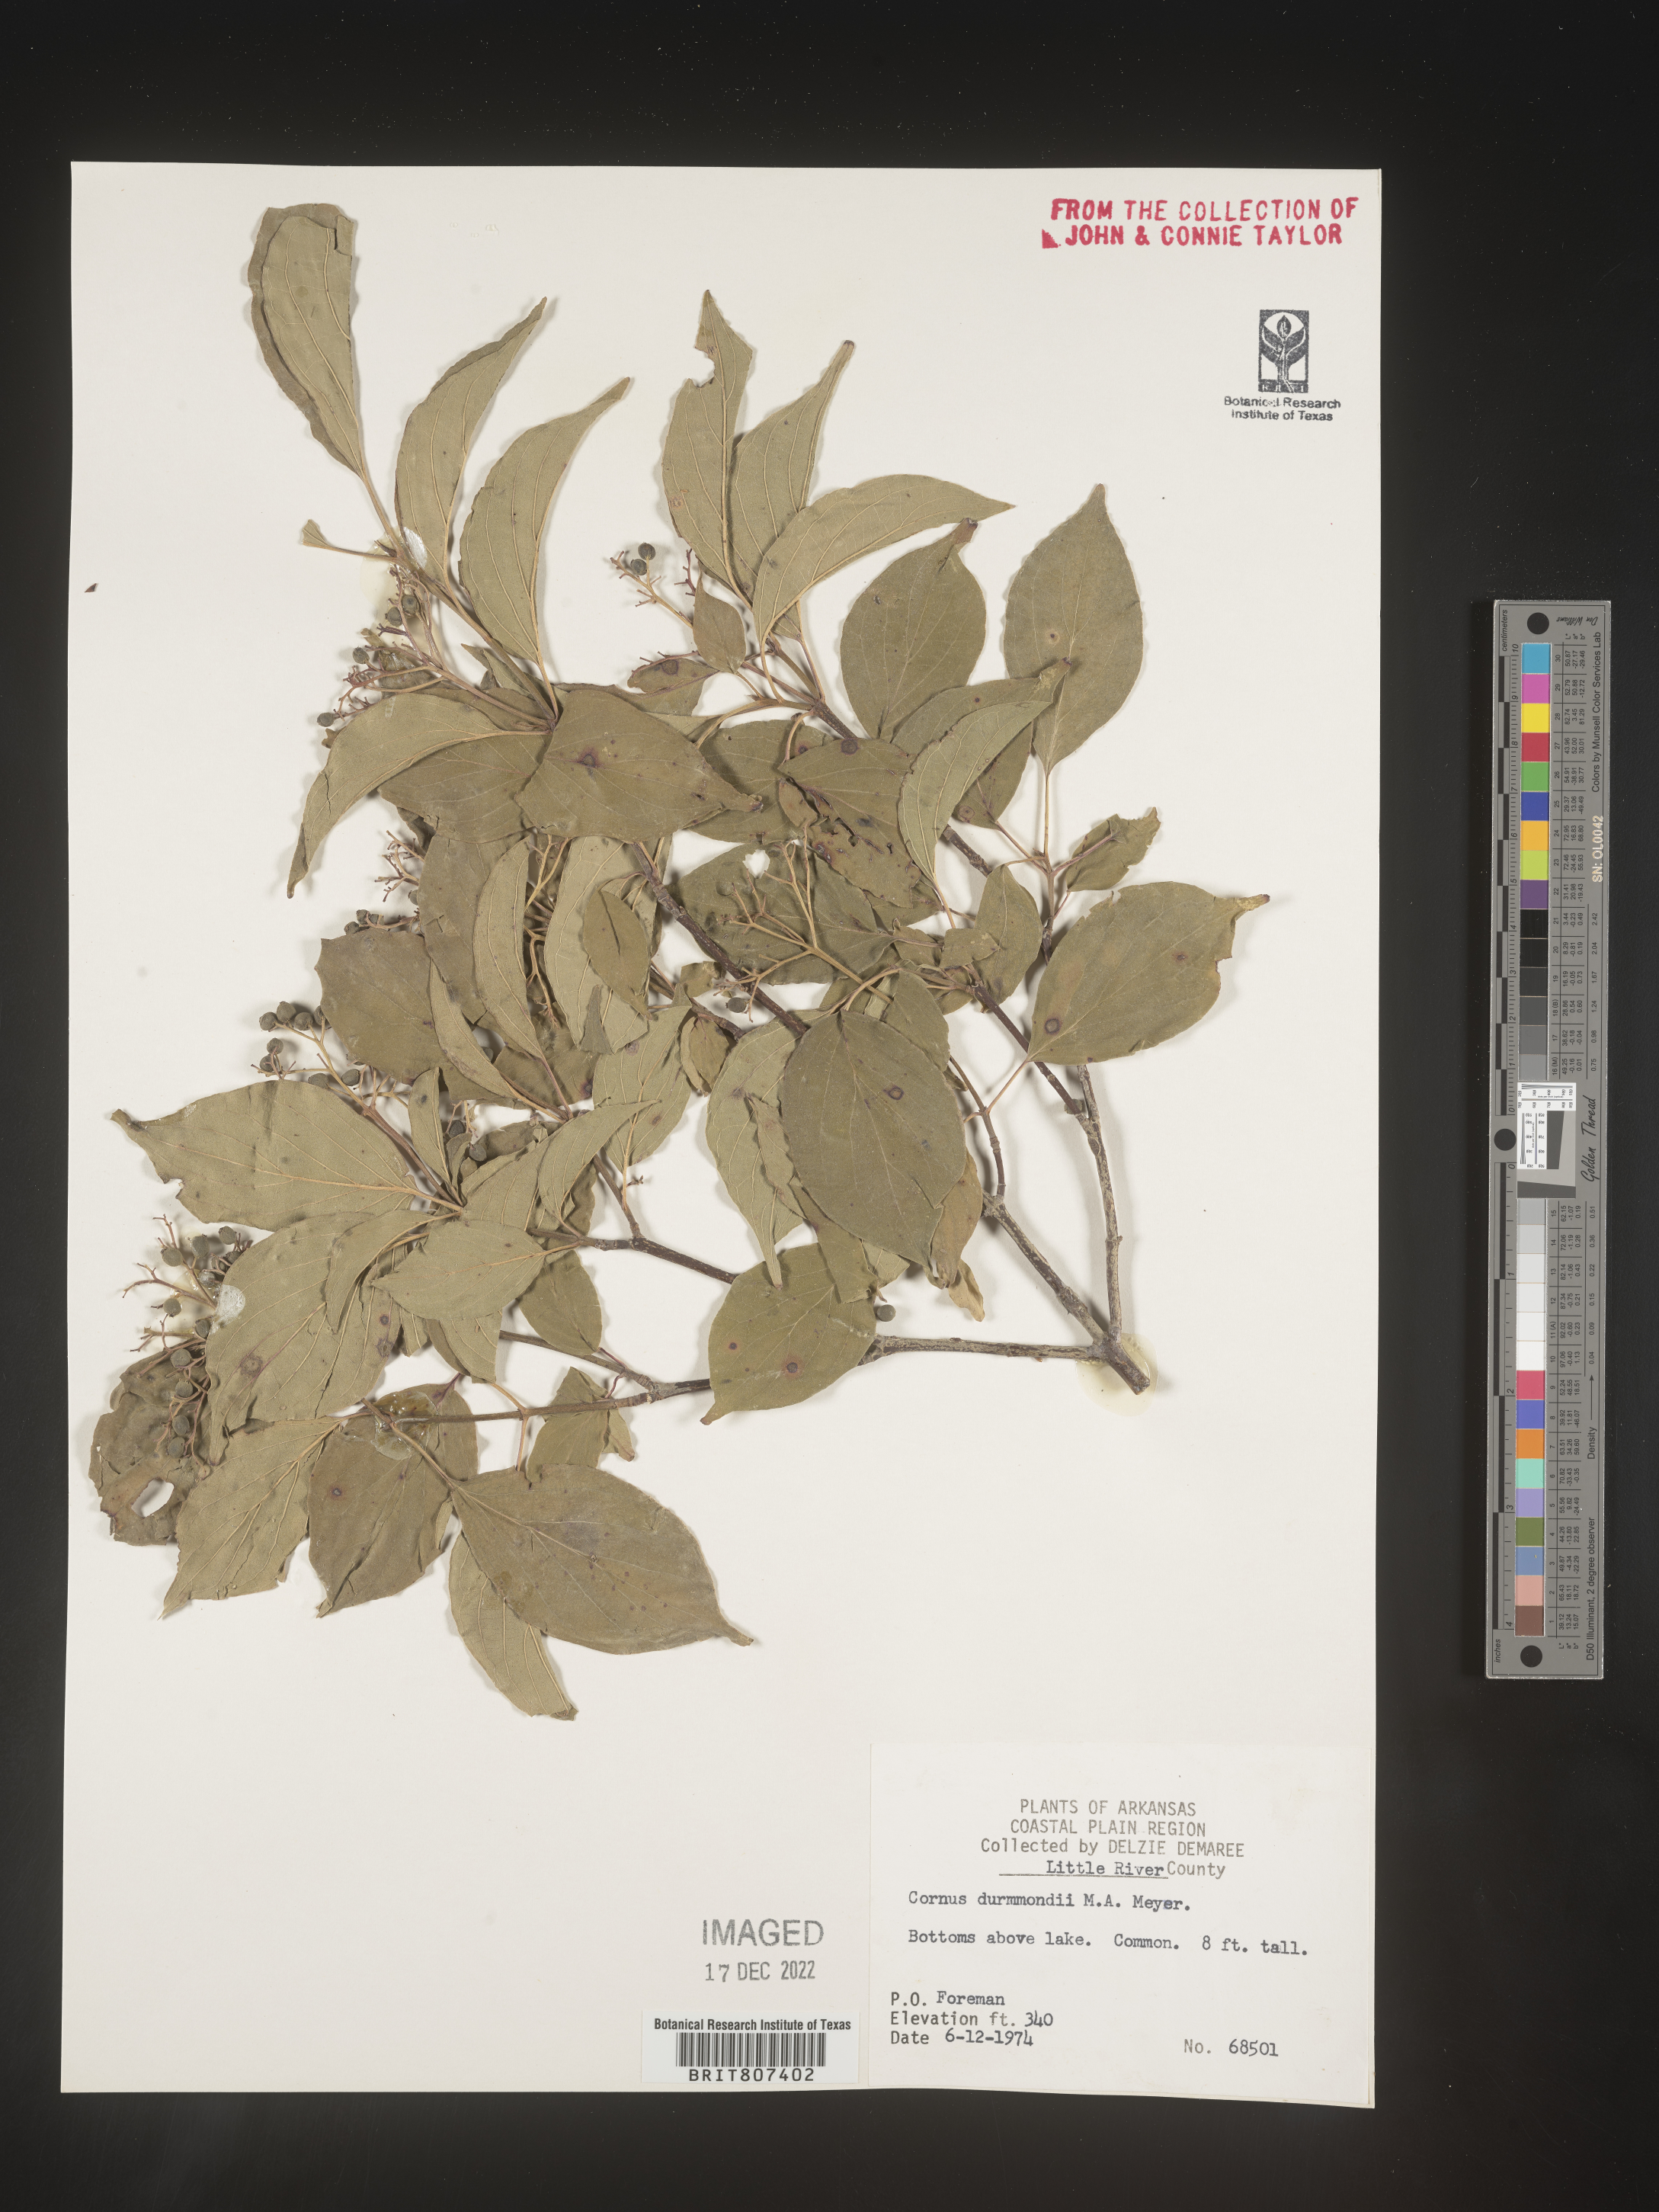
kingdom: Plantae
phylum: Tracheophyta
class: Magnoliopsida
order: Cornales
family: Cornaceae
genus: Cornus
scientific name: Cornus drummondii
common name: Rough-leaf dogwood
